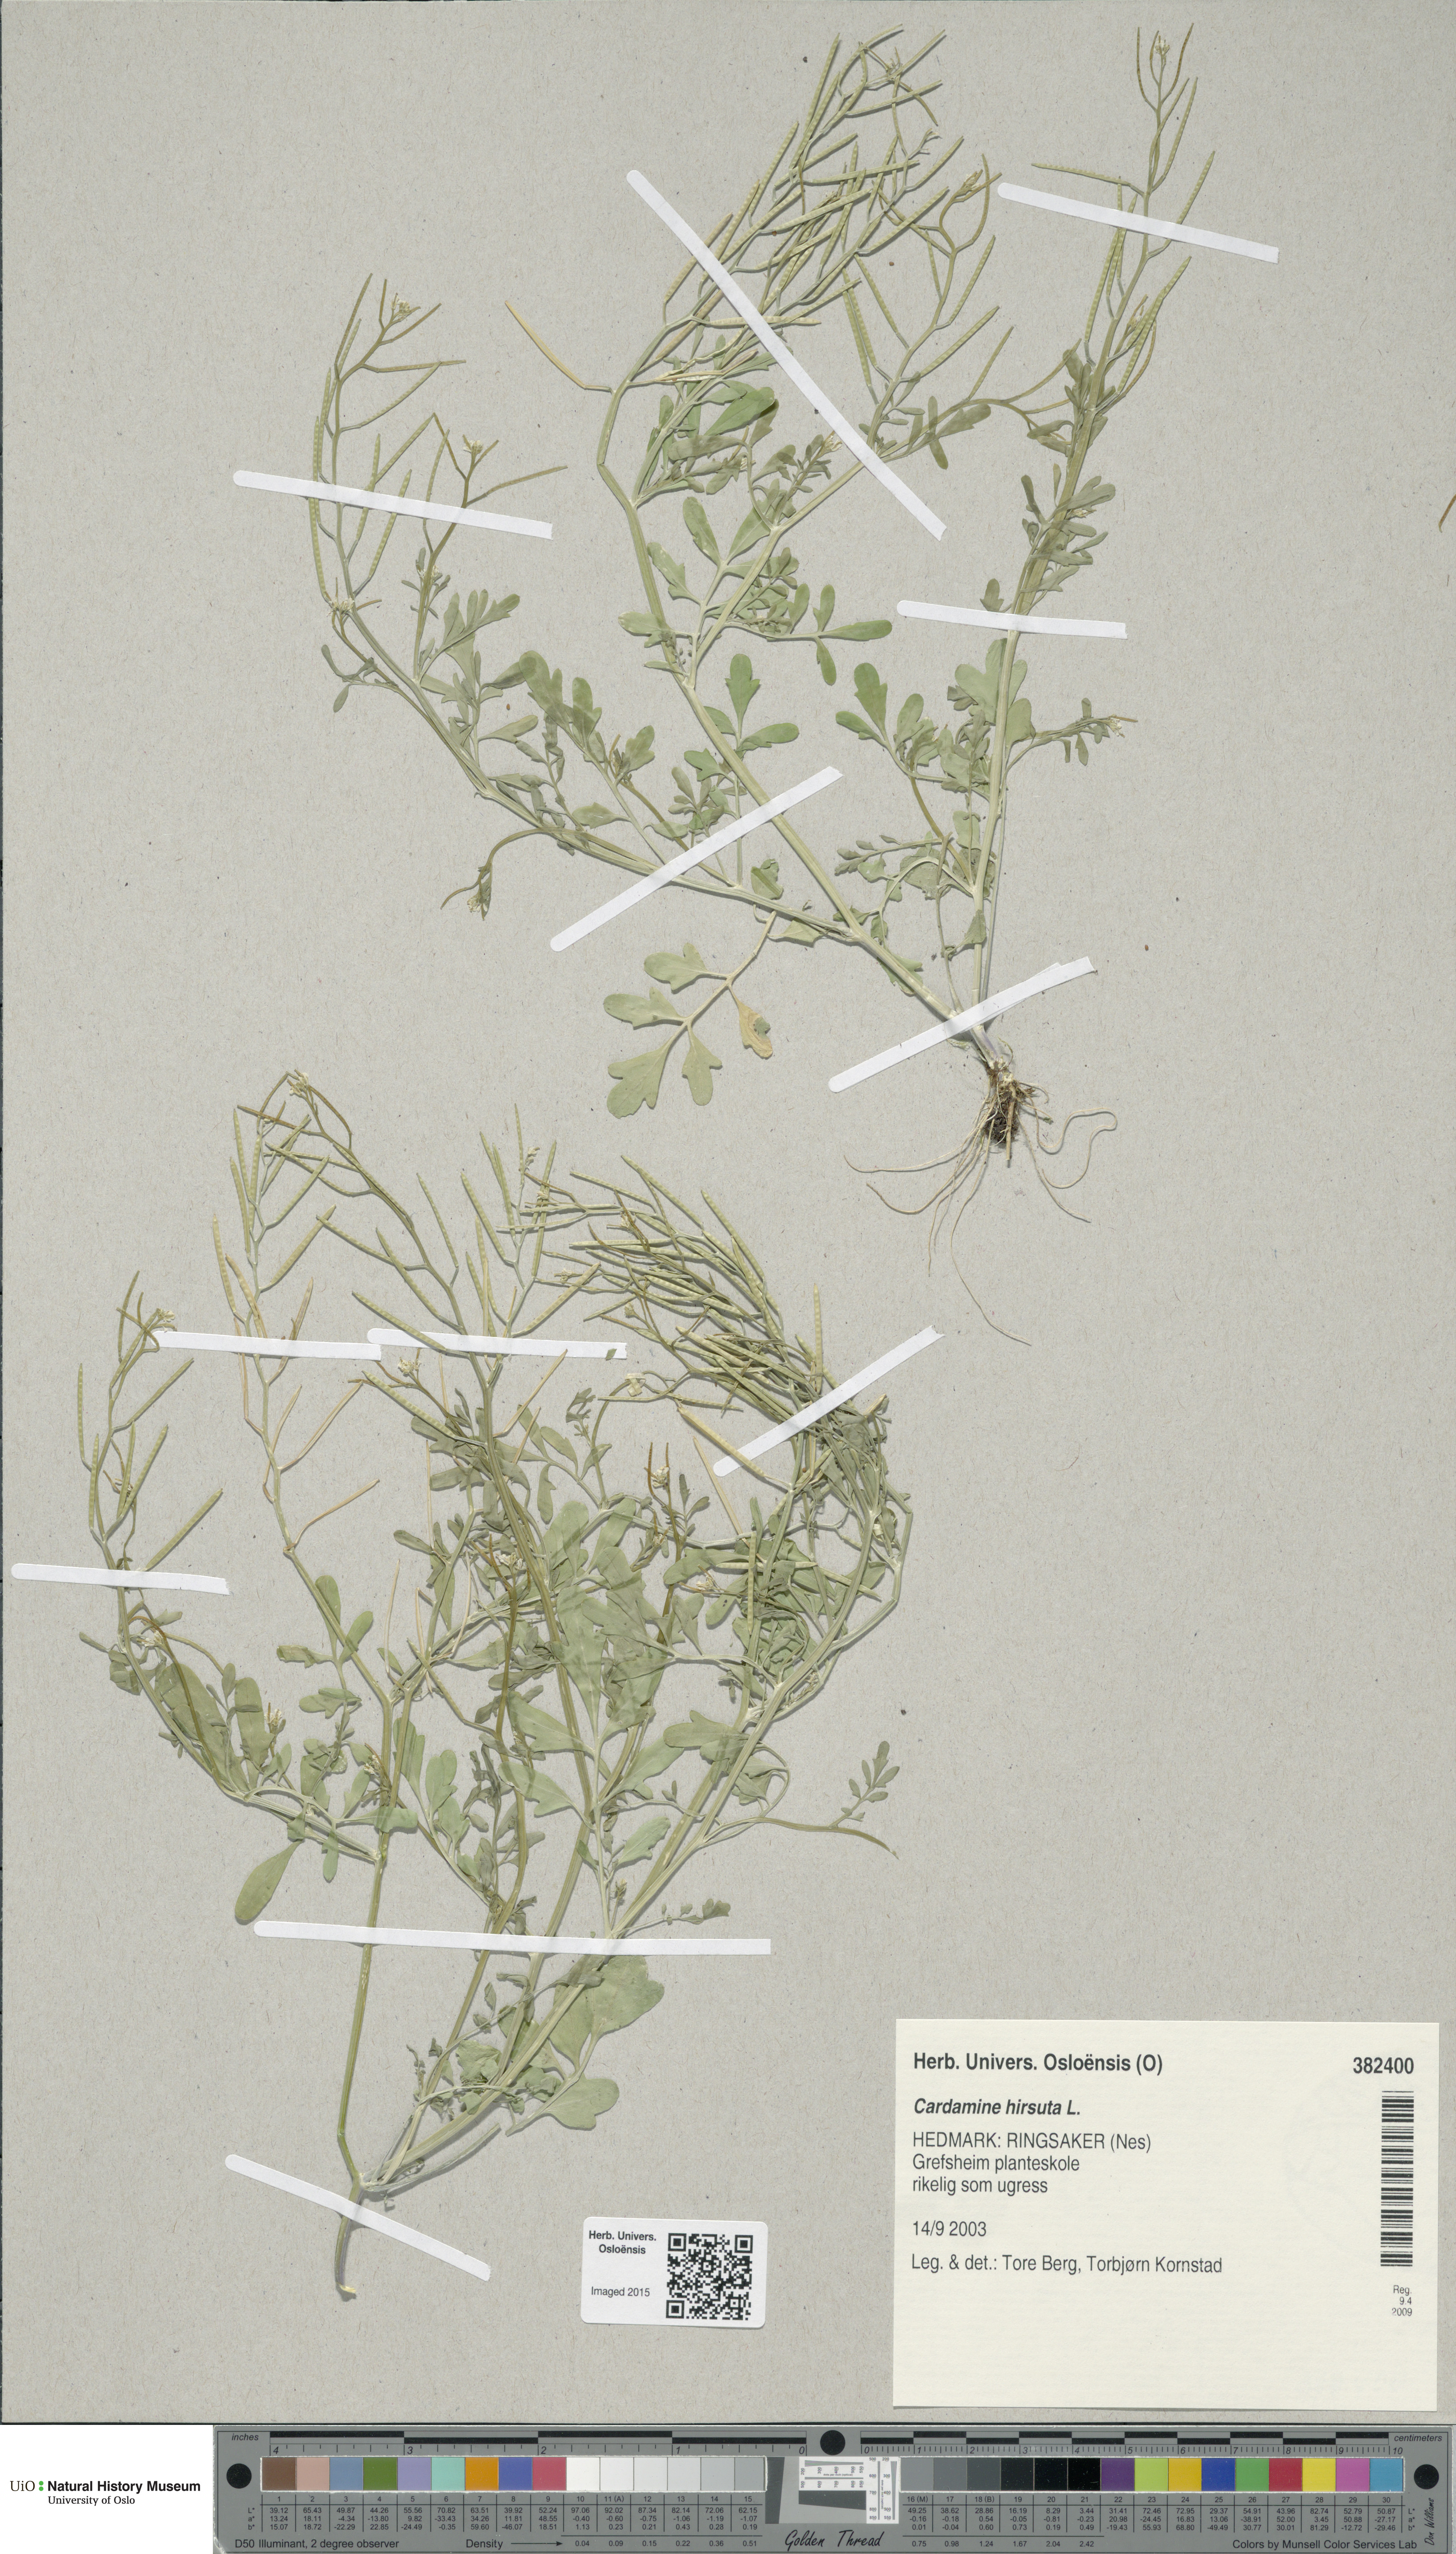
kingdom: Plantae
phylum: Tracheophyta
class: Magnoliopsida
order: Brassicales
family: Brassicaceae
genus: Cardamine
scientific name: Cardamine hirsuta
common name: Hairy bittercress
